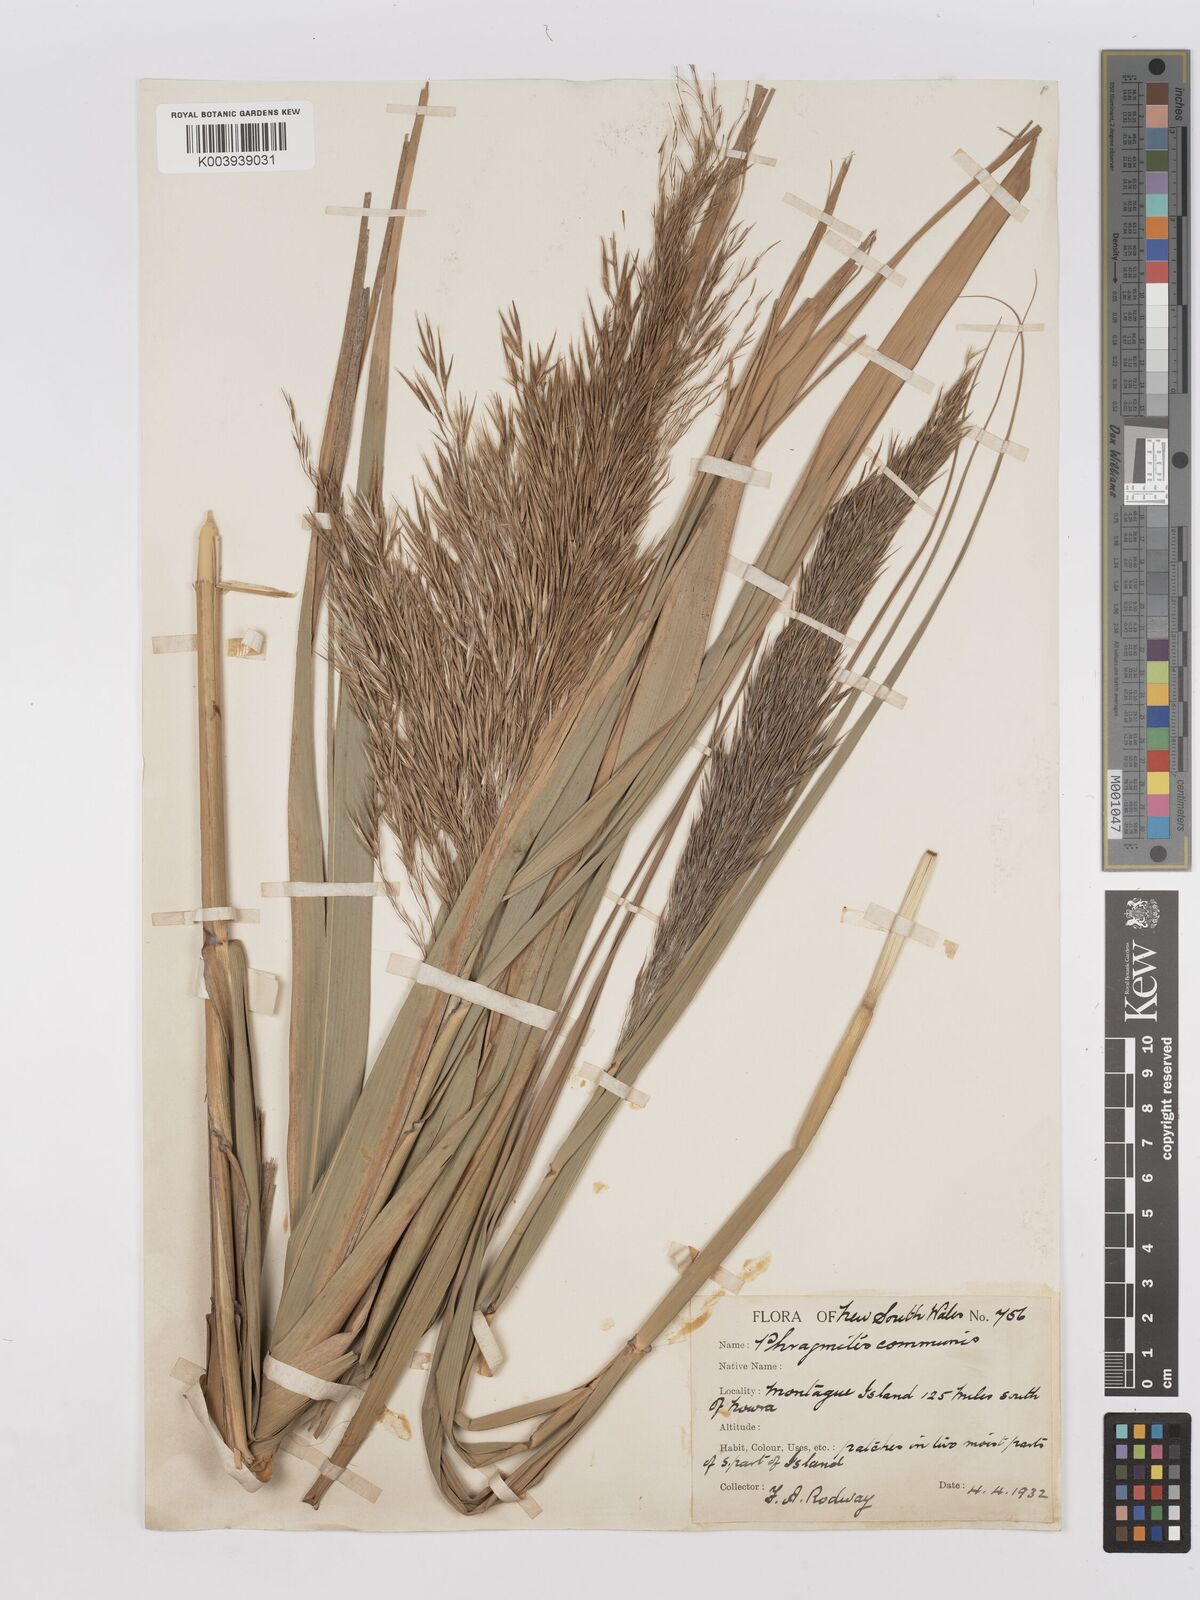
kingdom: Plantae
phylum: Tracheophyta
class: Liliopsida
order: Poales
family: Poaceae
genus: Phragmites
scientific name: Phragmites australis
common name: Common reed
